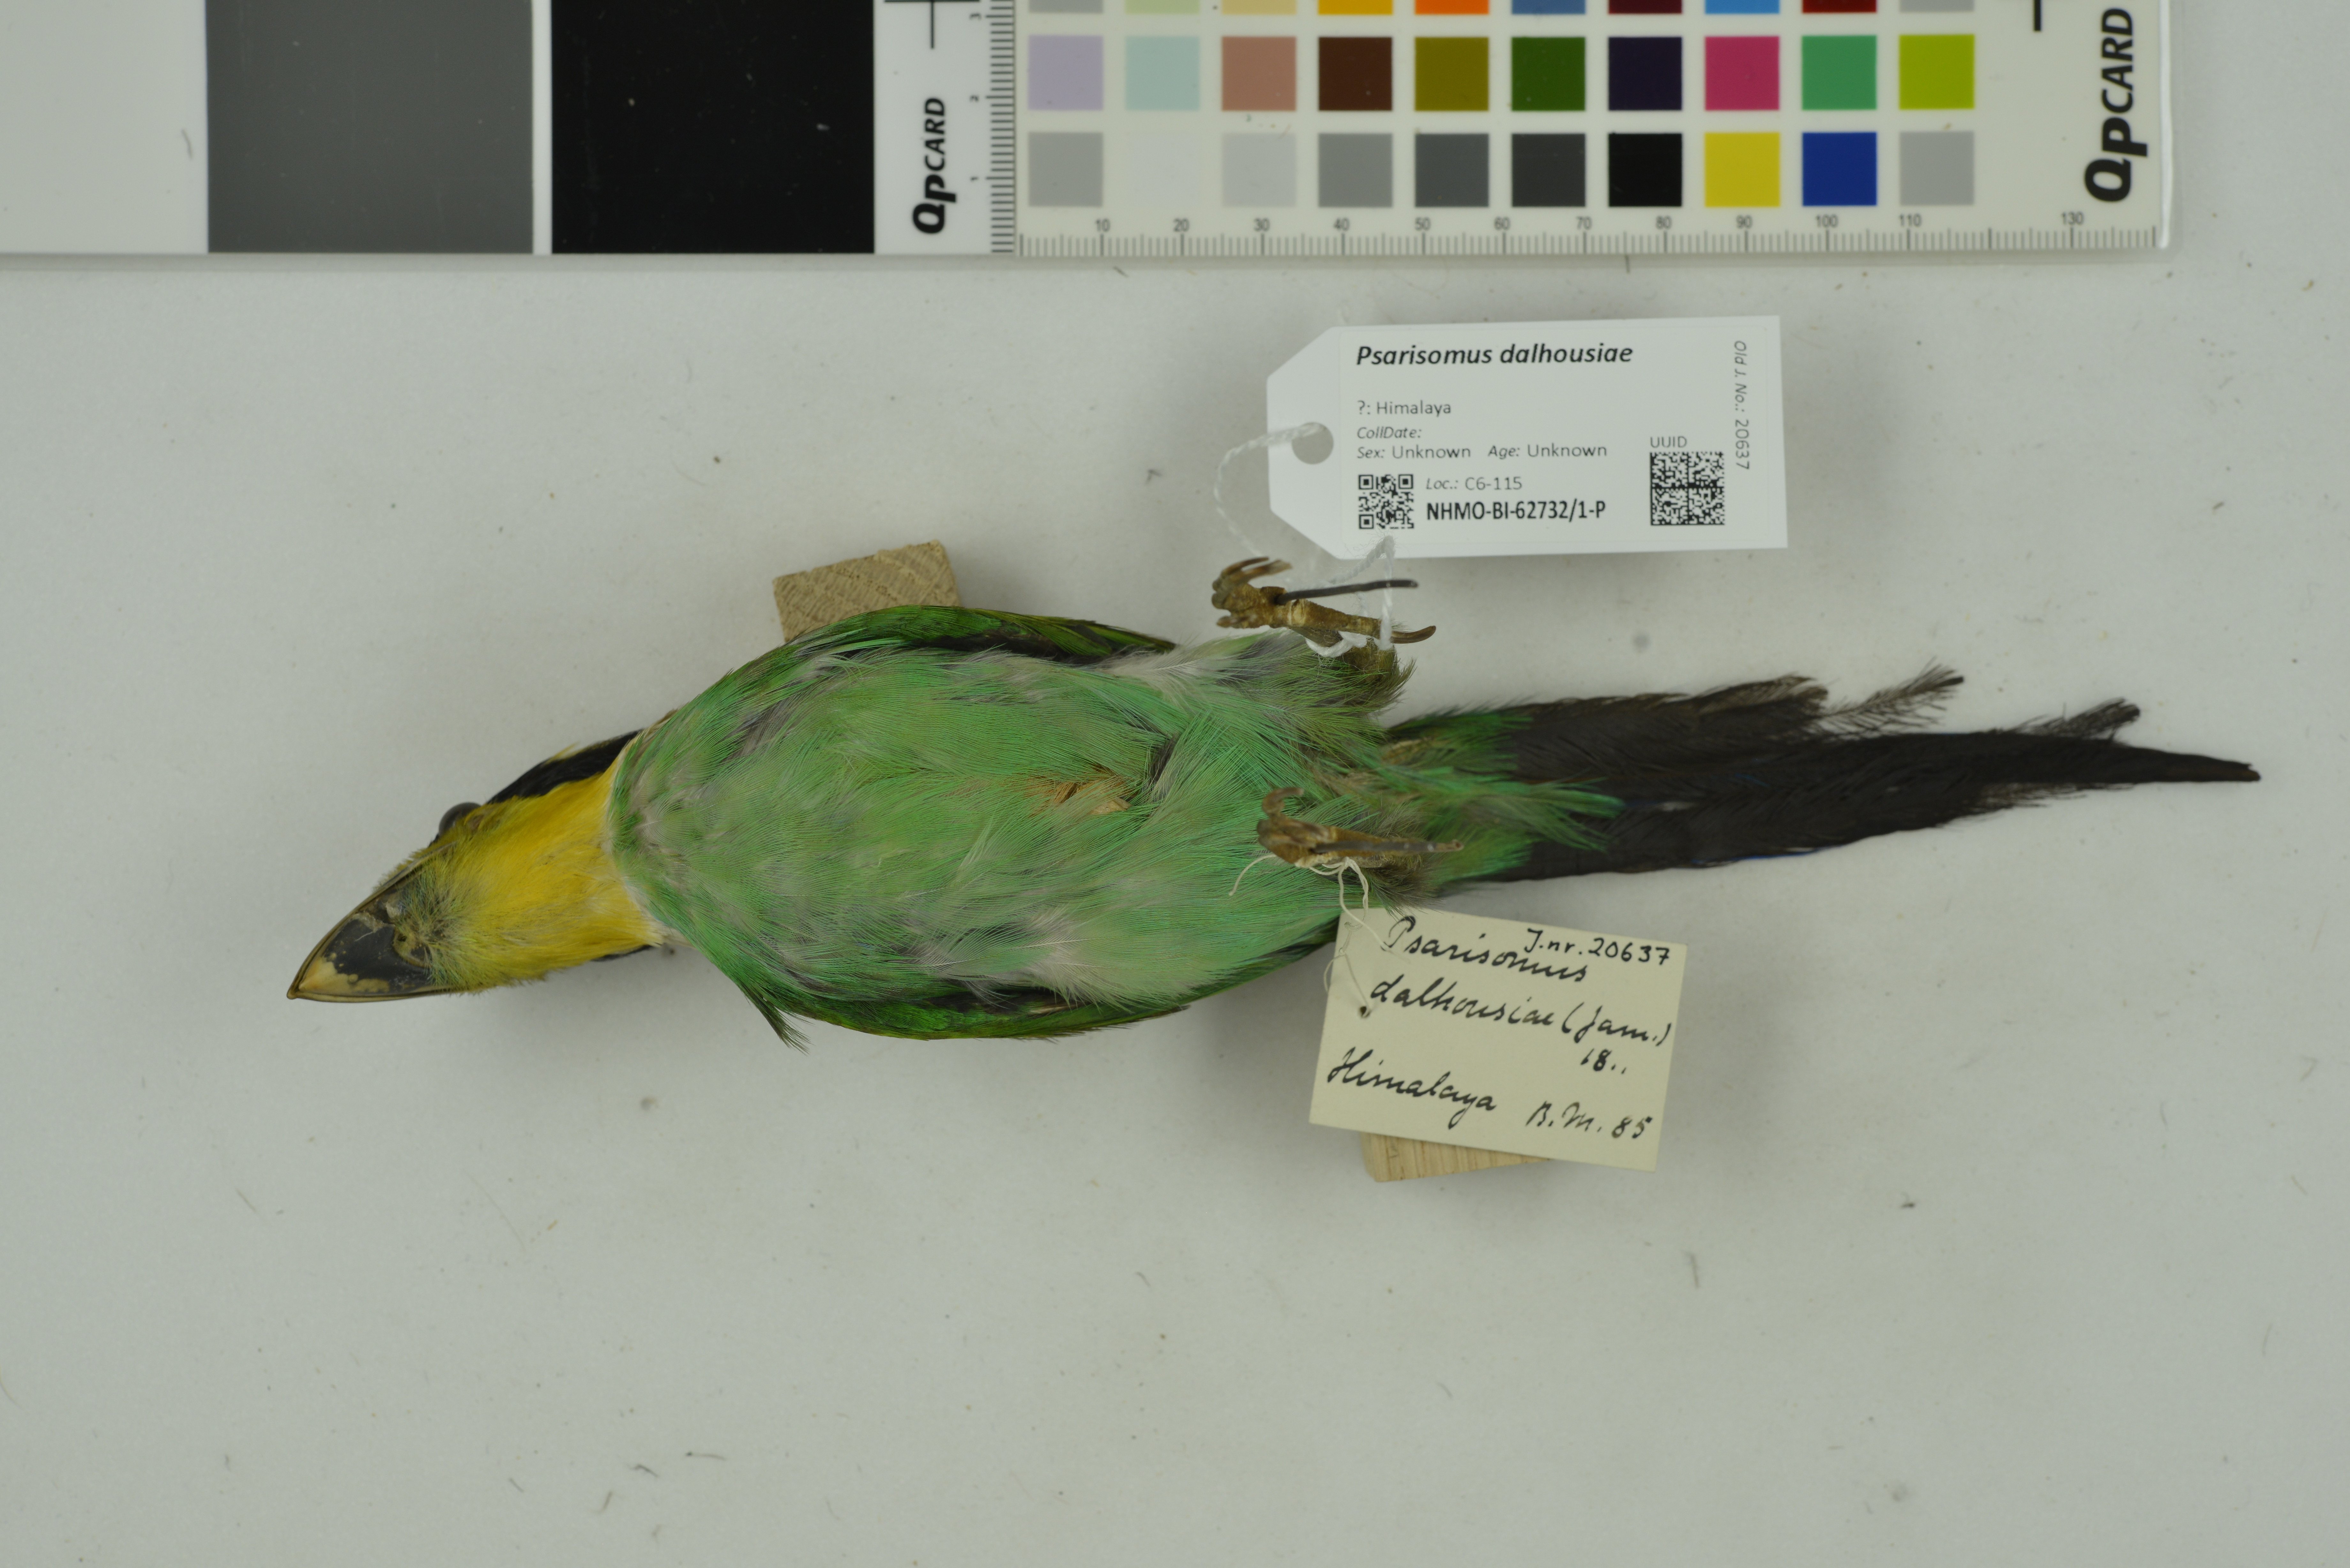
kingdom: Animalia
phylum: Chordata
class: Aves
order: Passeriformes
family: Eurylaimidae
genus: Psarisomus
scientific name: Psarisomus dalhousiae
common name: Long-tailed broadbill
